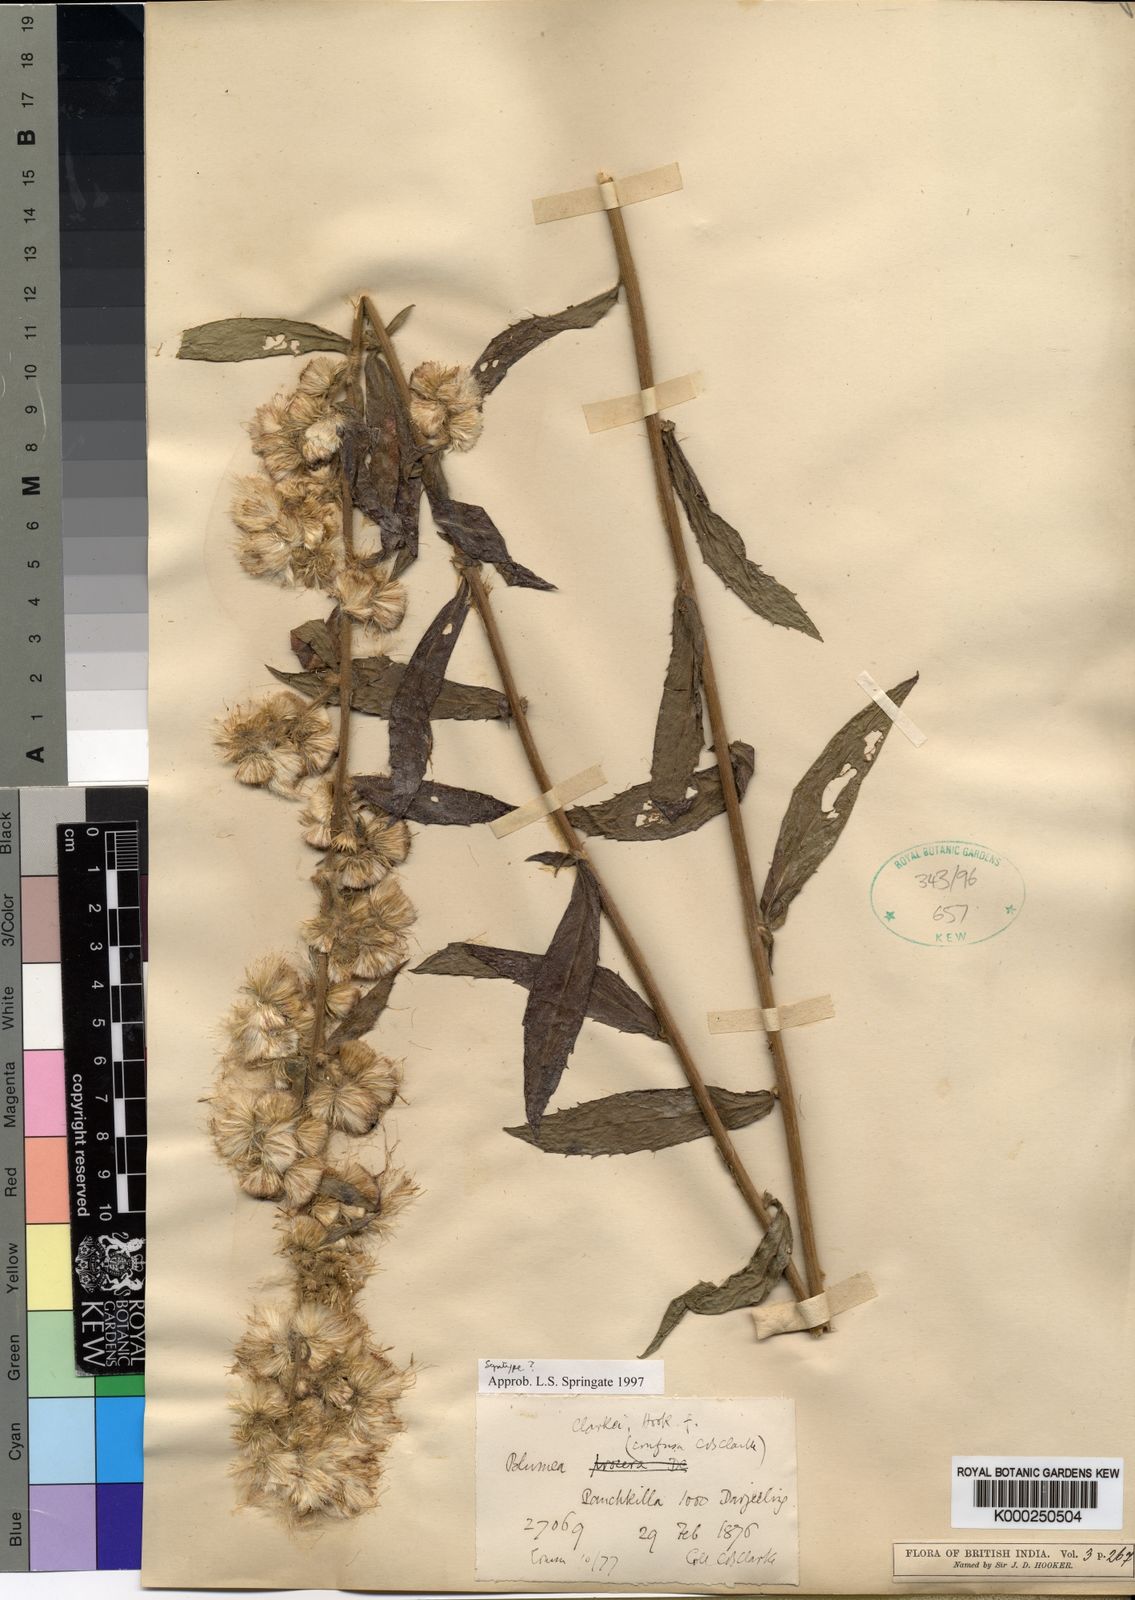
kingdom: Plantae
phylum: Tracheophyta
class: Magnoliopsida
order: Asterales
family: Asteraceae
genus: Blumea
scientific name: Blumea hirsuta
